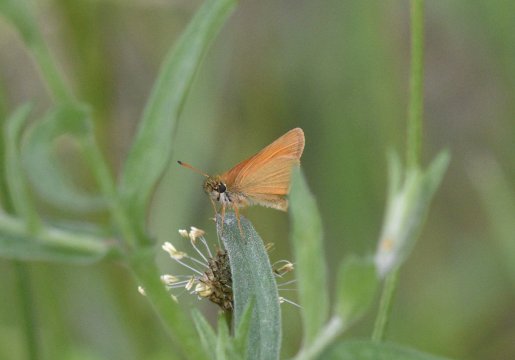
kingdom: Animalia
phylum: Arthropoda
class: Insecta
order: Lepidoptera
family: Hesperiidae
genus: Thymelicus
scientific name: Thymelicus lineola
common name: European Skipper
